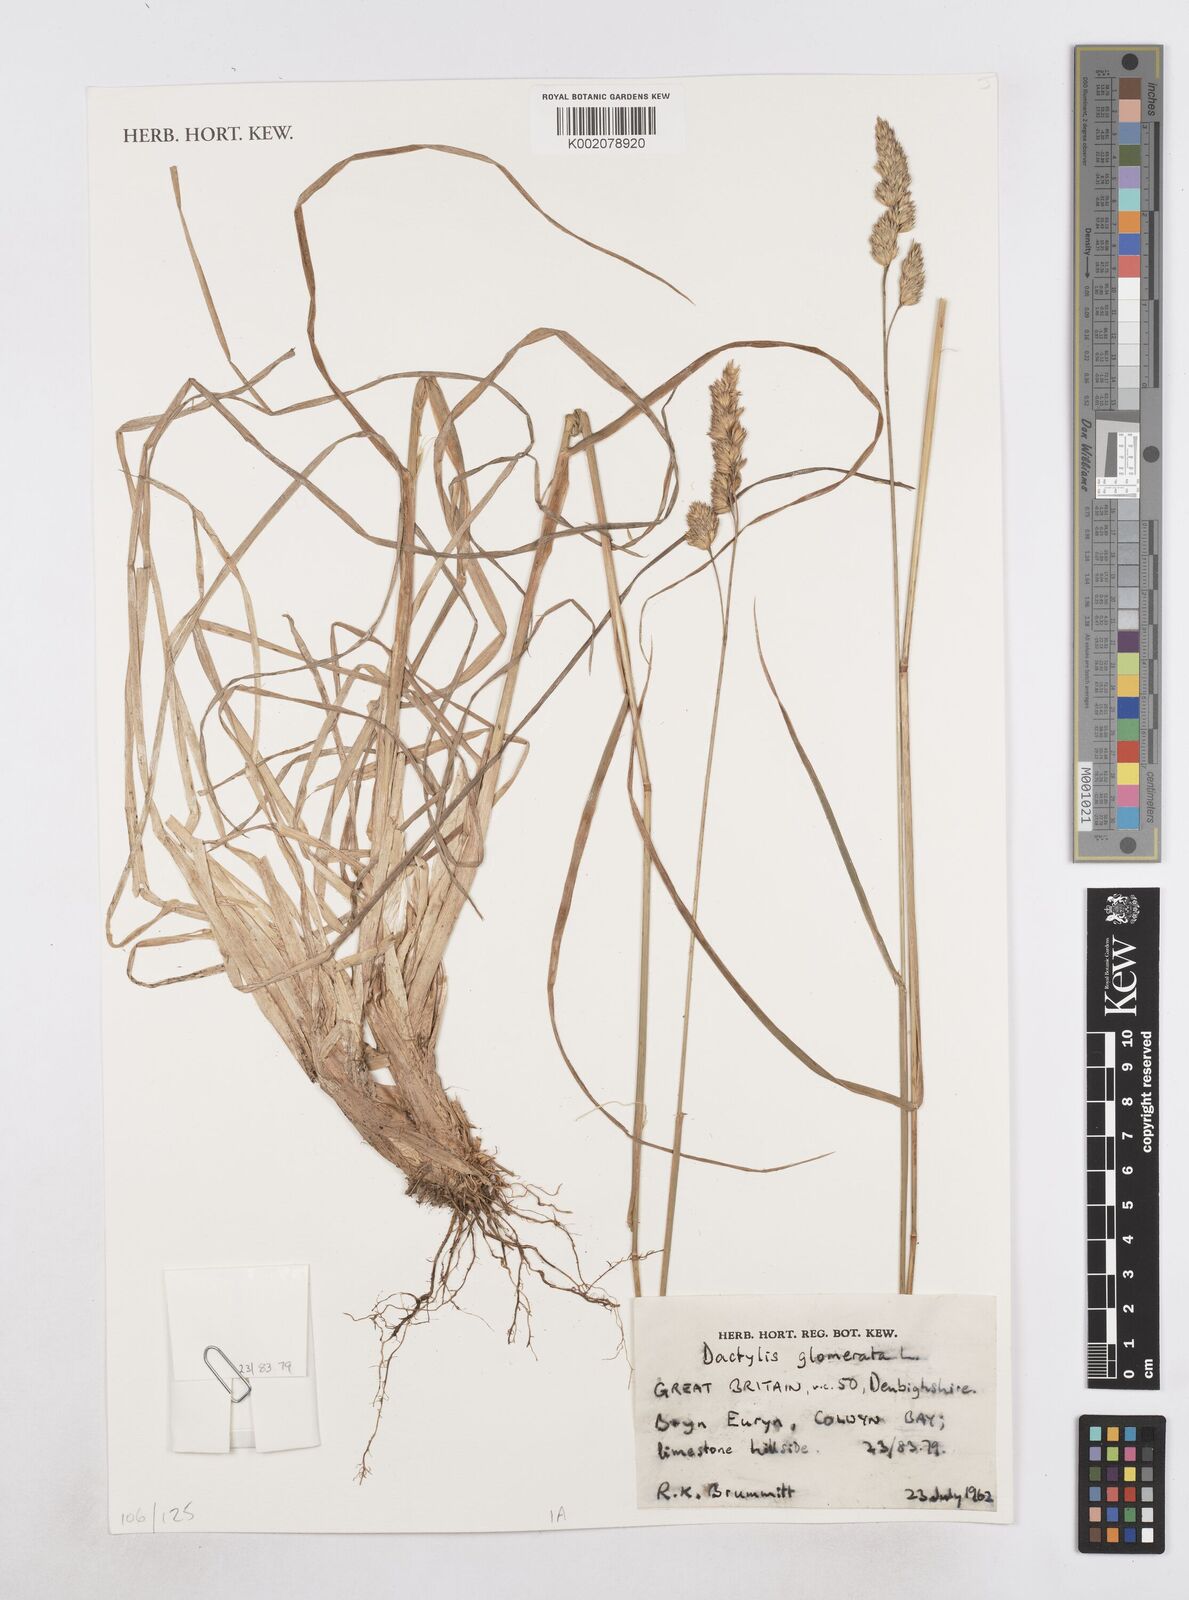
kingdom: Plantae
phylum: Tracheophyta
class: Liliopsida
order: Poales
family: Poaceae
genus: Dactylis
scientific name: Dactylis glomerata
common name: Orchardgrass
